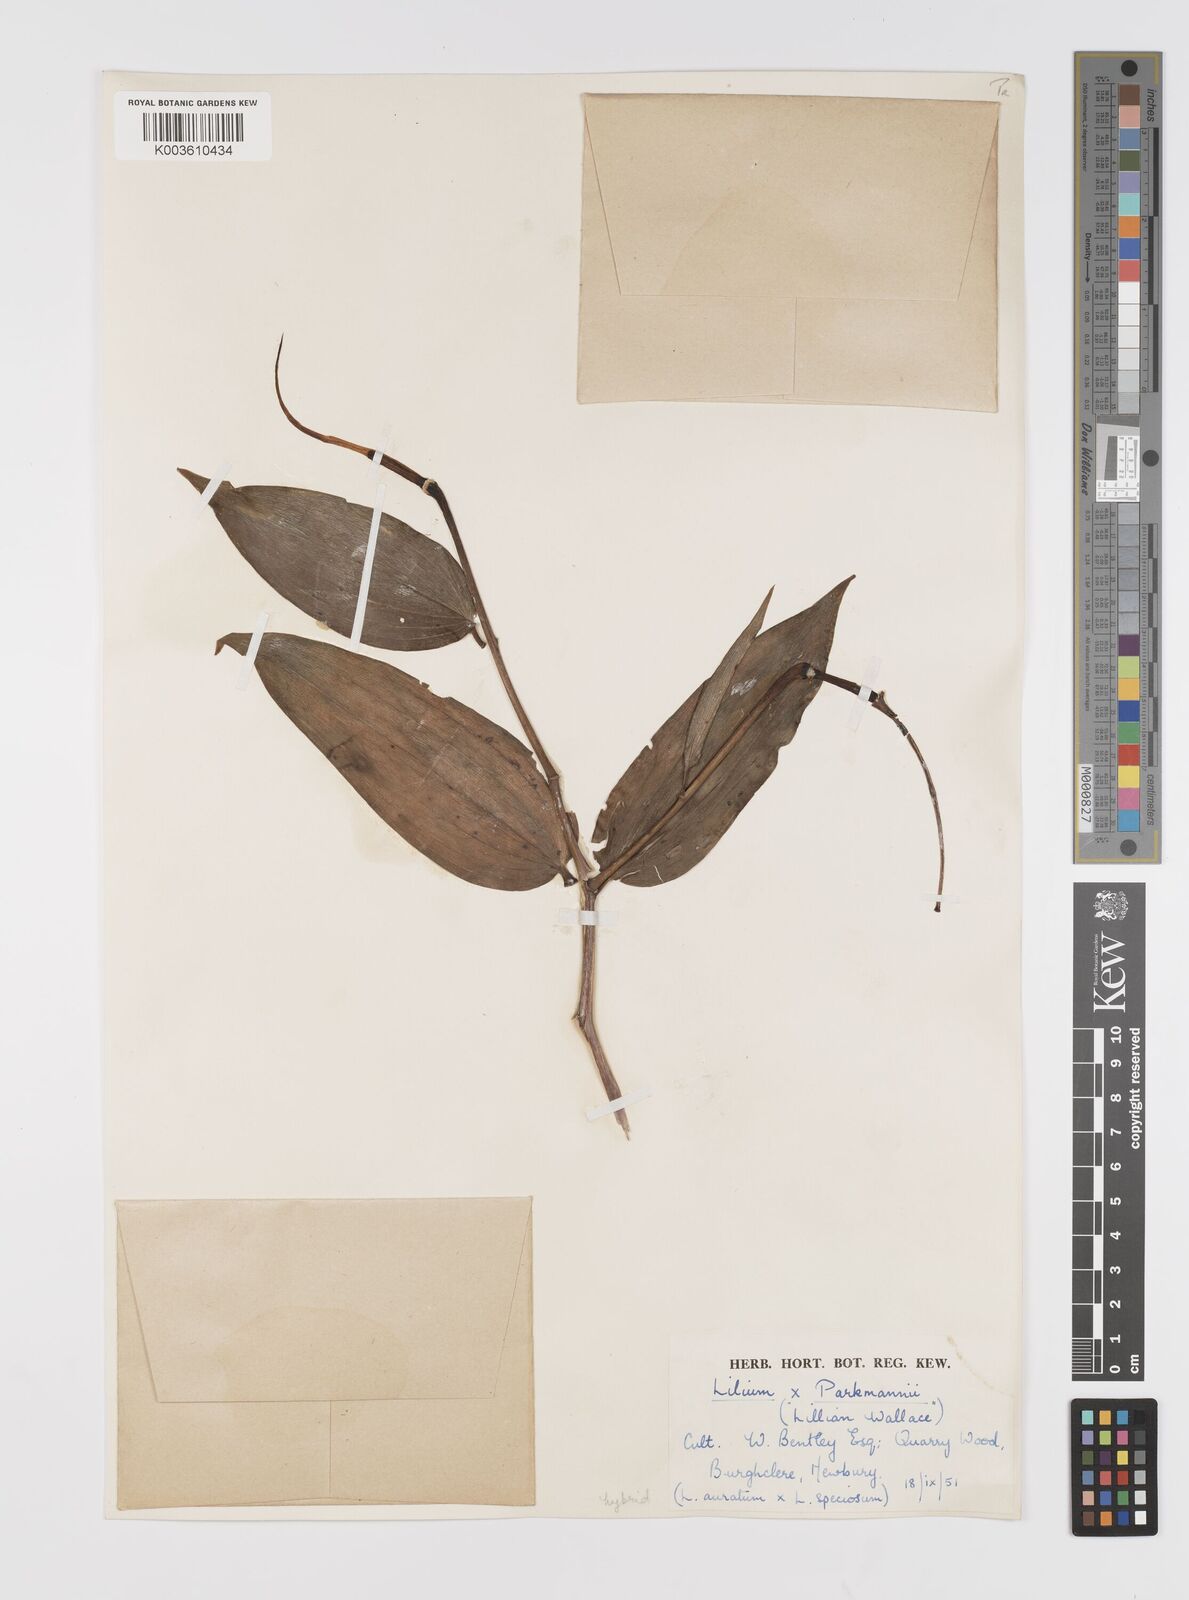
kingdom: Plantae
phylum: Tracheophyta
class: Liliopsida
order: Liliales
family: Liliaceae
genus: Lilium
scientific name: Lilium parkmanii
